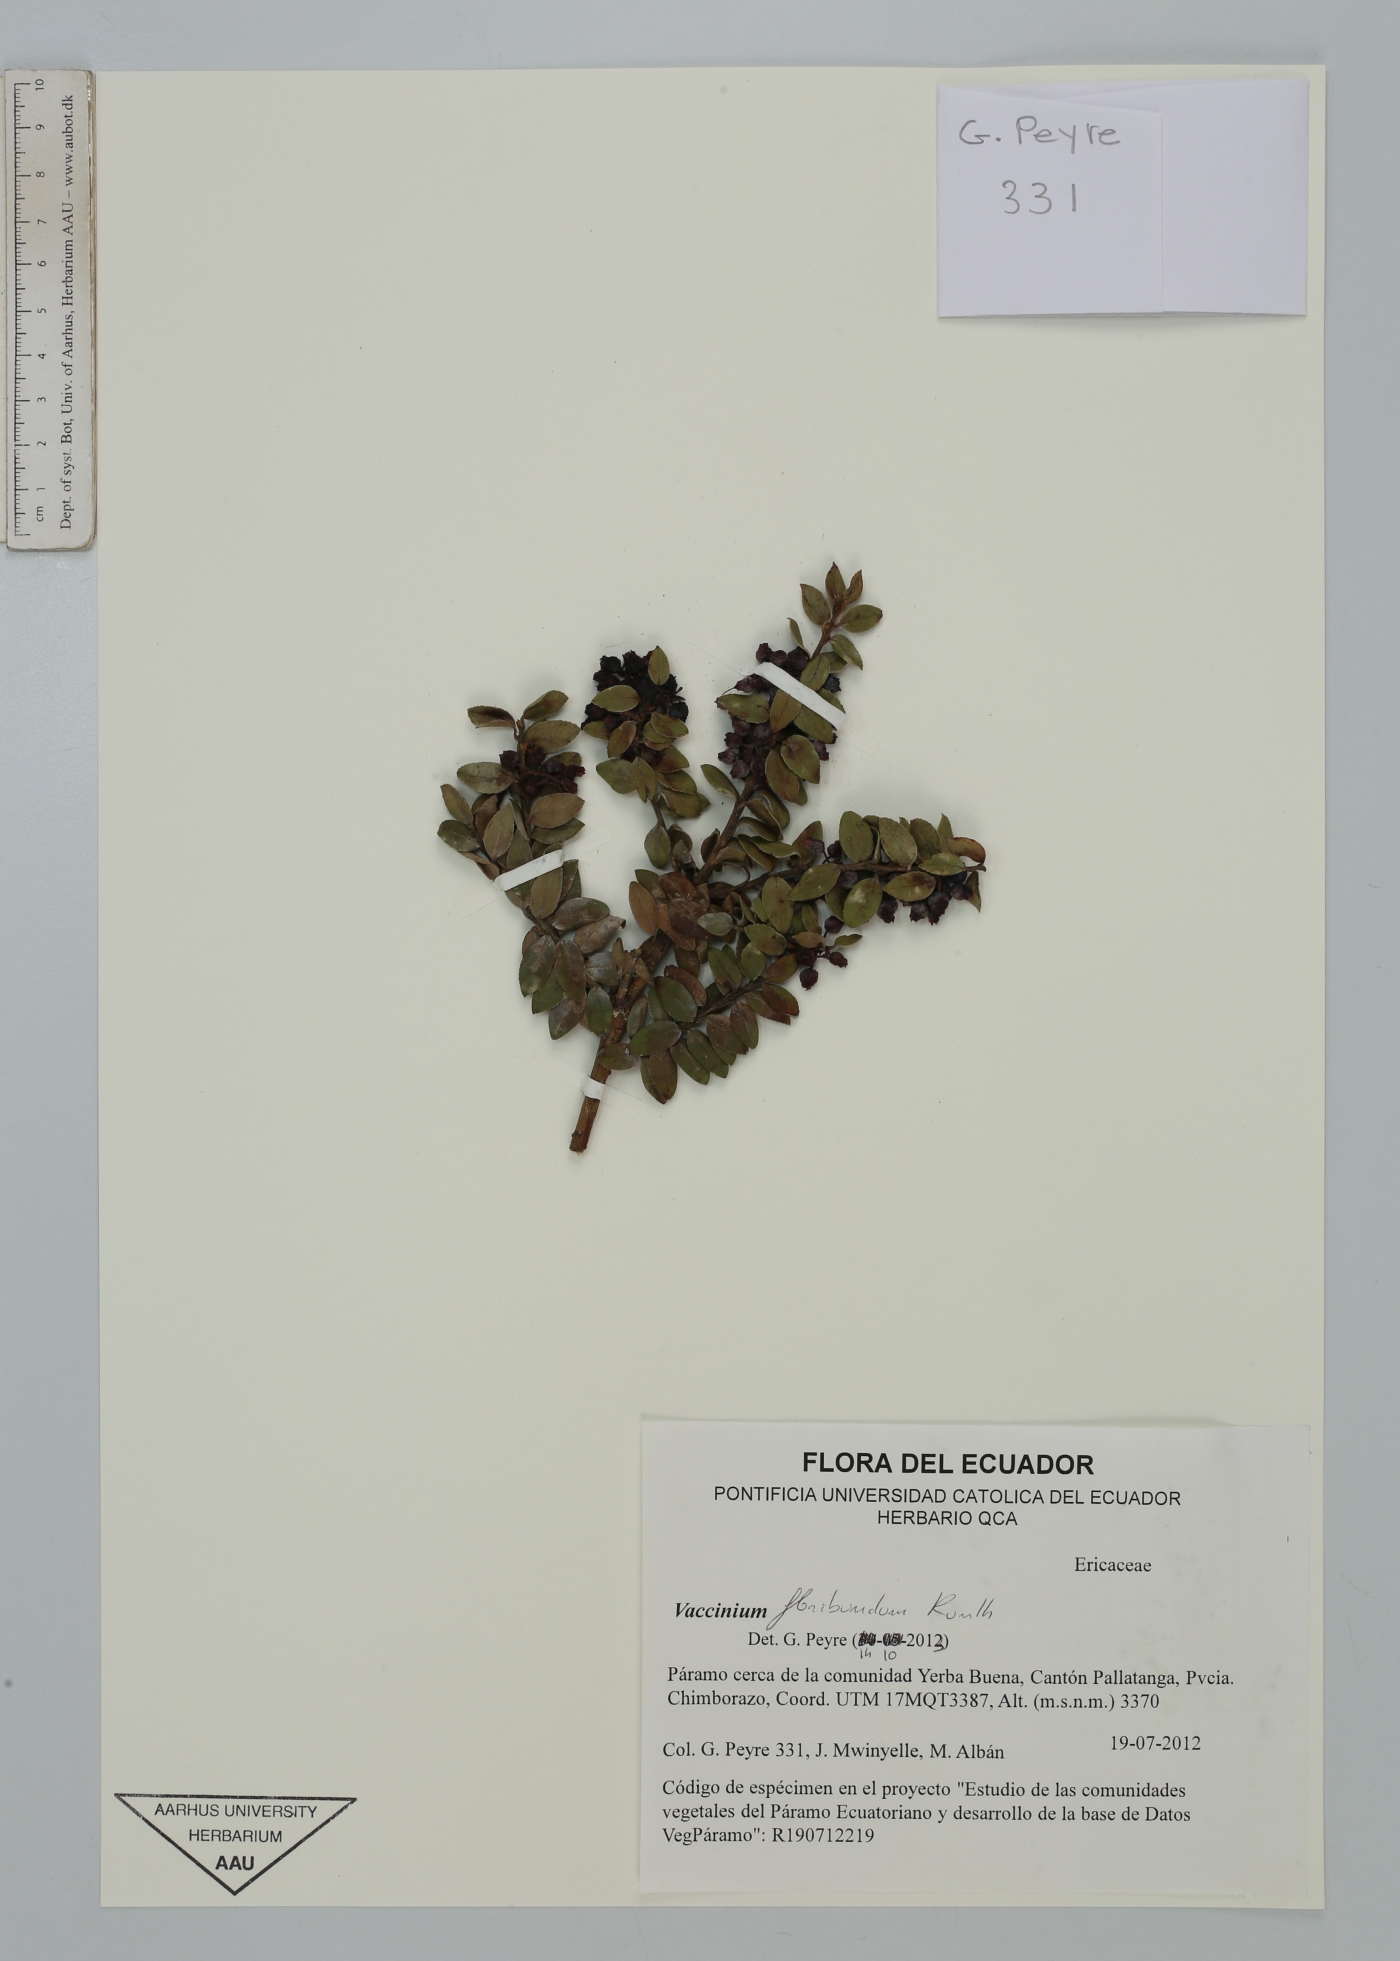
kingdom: Plantae
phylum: Tracheophyta
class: Magnoliopsida
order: Ericales
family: Ericaceae
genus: Vaccinium
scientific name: Vaccinium floribundum
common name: Colombian blueberry
